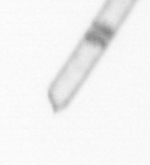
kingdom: Chromista
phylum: Ochrophyta
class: Bacillariophyceae
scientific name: Bacillariophyceae
